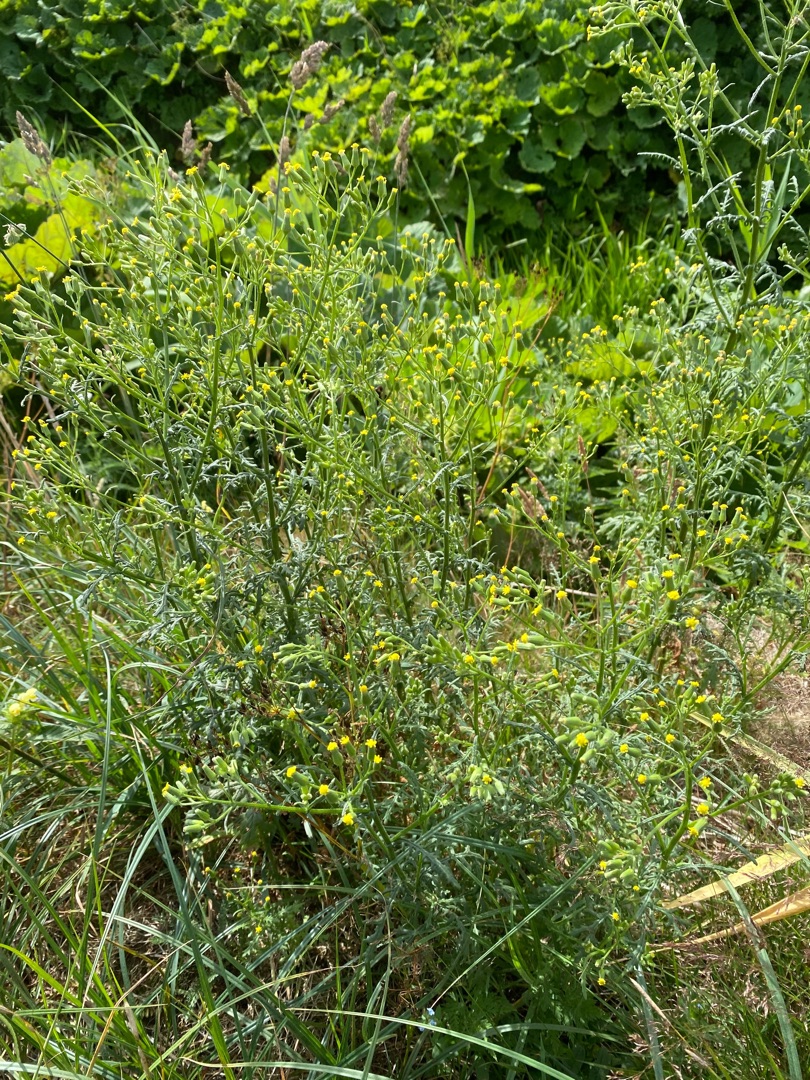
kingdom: Plantae
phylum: Tracheophyta
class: Magnoliopsida
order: Asterales
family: Asteraceae
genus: Senecio
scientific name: Senecio sylvaticus
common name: Skov-brandbæger
